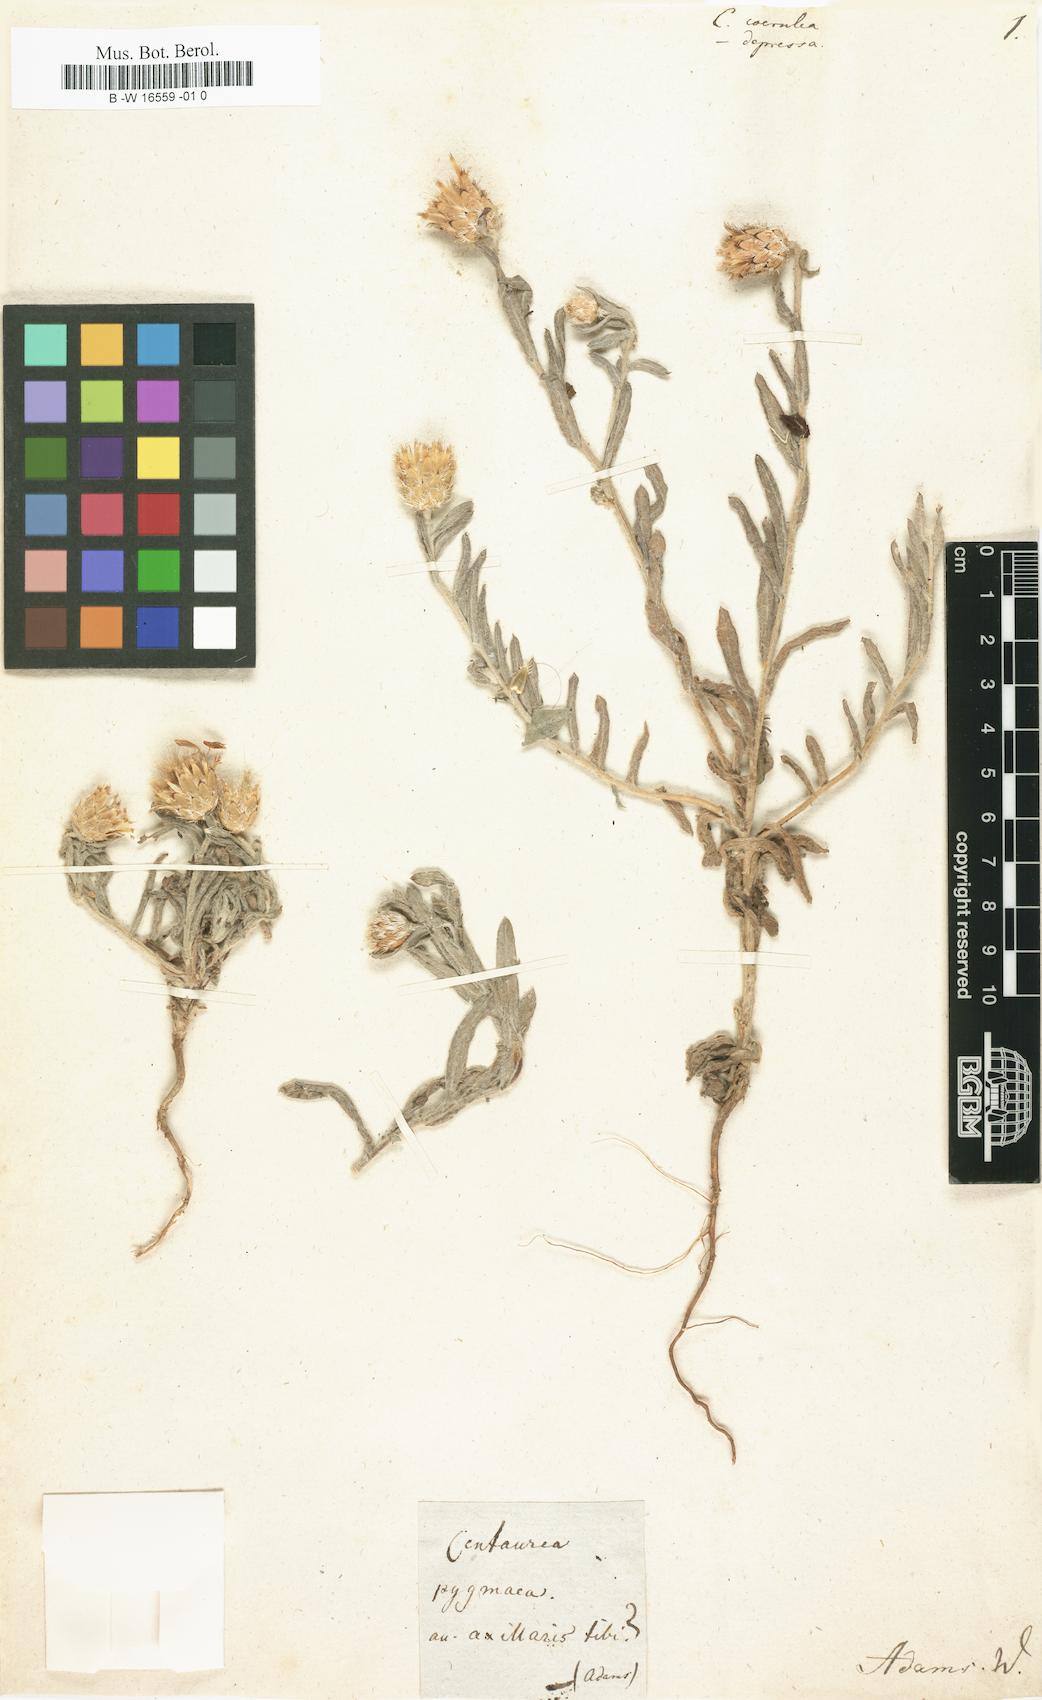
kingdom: Plantae
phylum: Tracheophyta
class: Magnoliopsida
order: Asterales
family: Asteraceae
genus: Centaurea
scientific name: Centaurea
